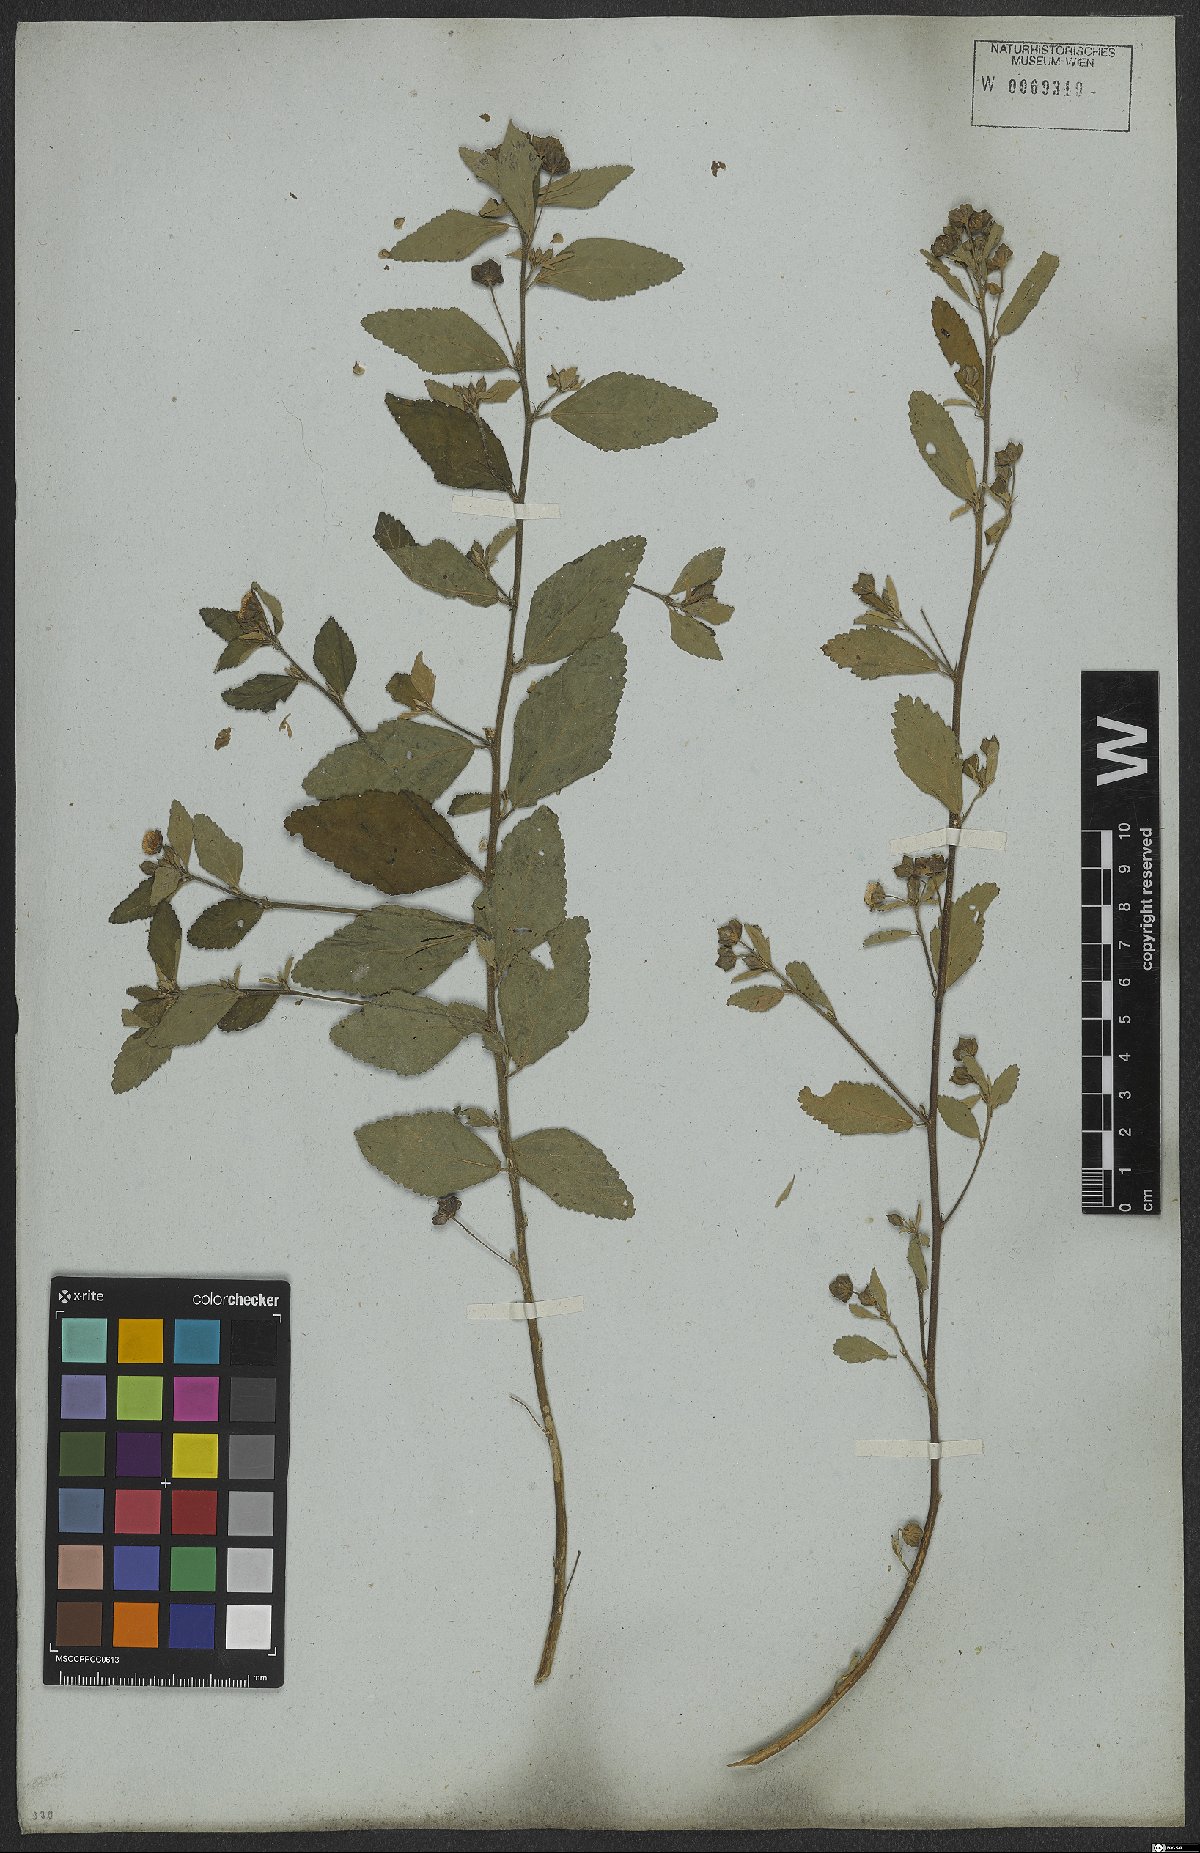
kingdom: Plantae
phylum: Tracheophyta
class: Magnoliopsida
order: Malvales
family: Malvaceae
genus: Sida
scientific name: Sida rhombifolia
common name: Queensland-hemp
